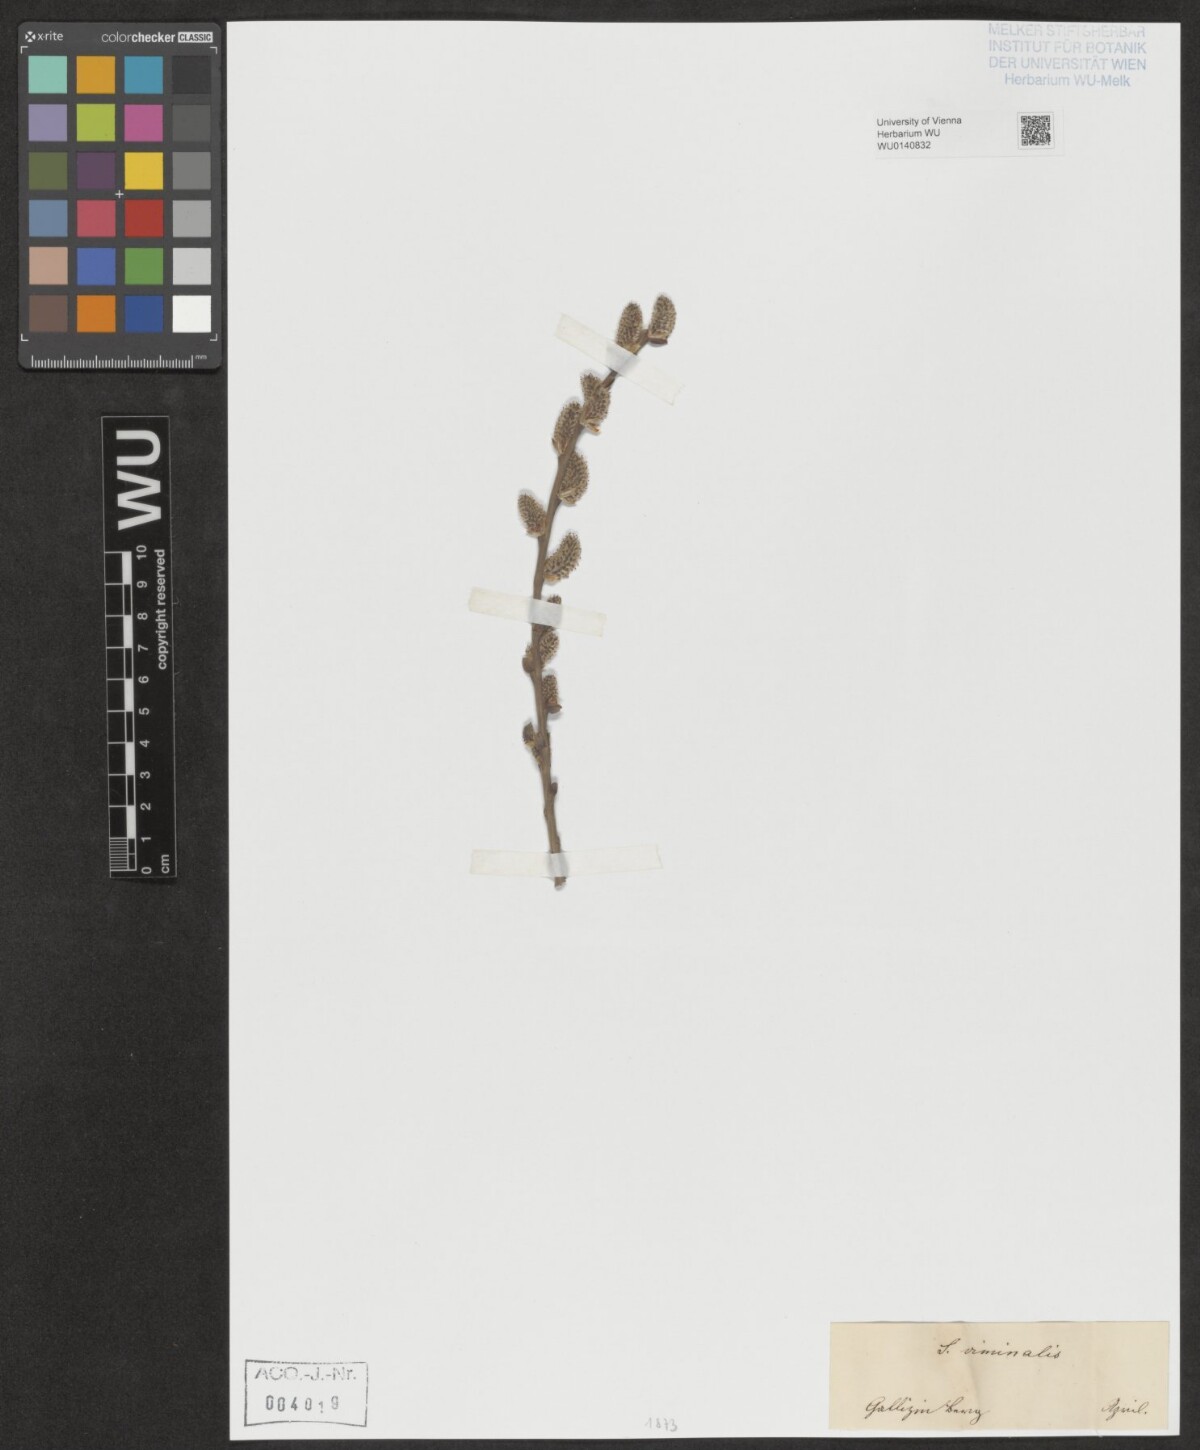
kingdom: Plantae
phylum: Tracheophyta
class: Magnoliopsida
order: Malpighiales
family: Salicaceae
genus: Salix
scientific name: Salix viminalis
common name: Osier
